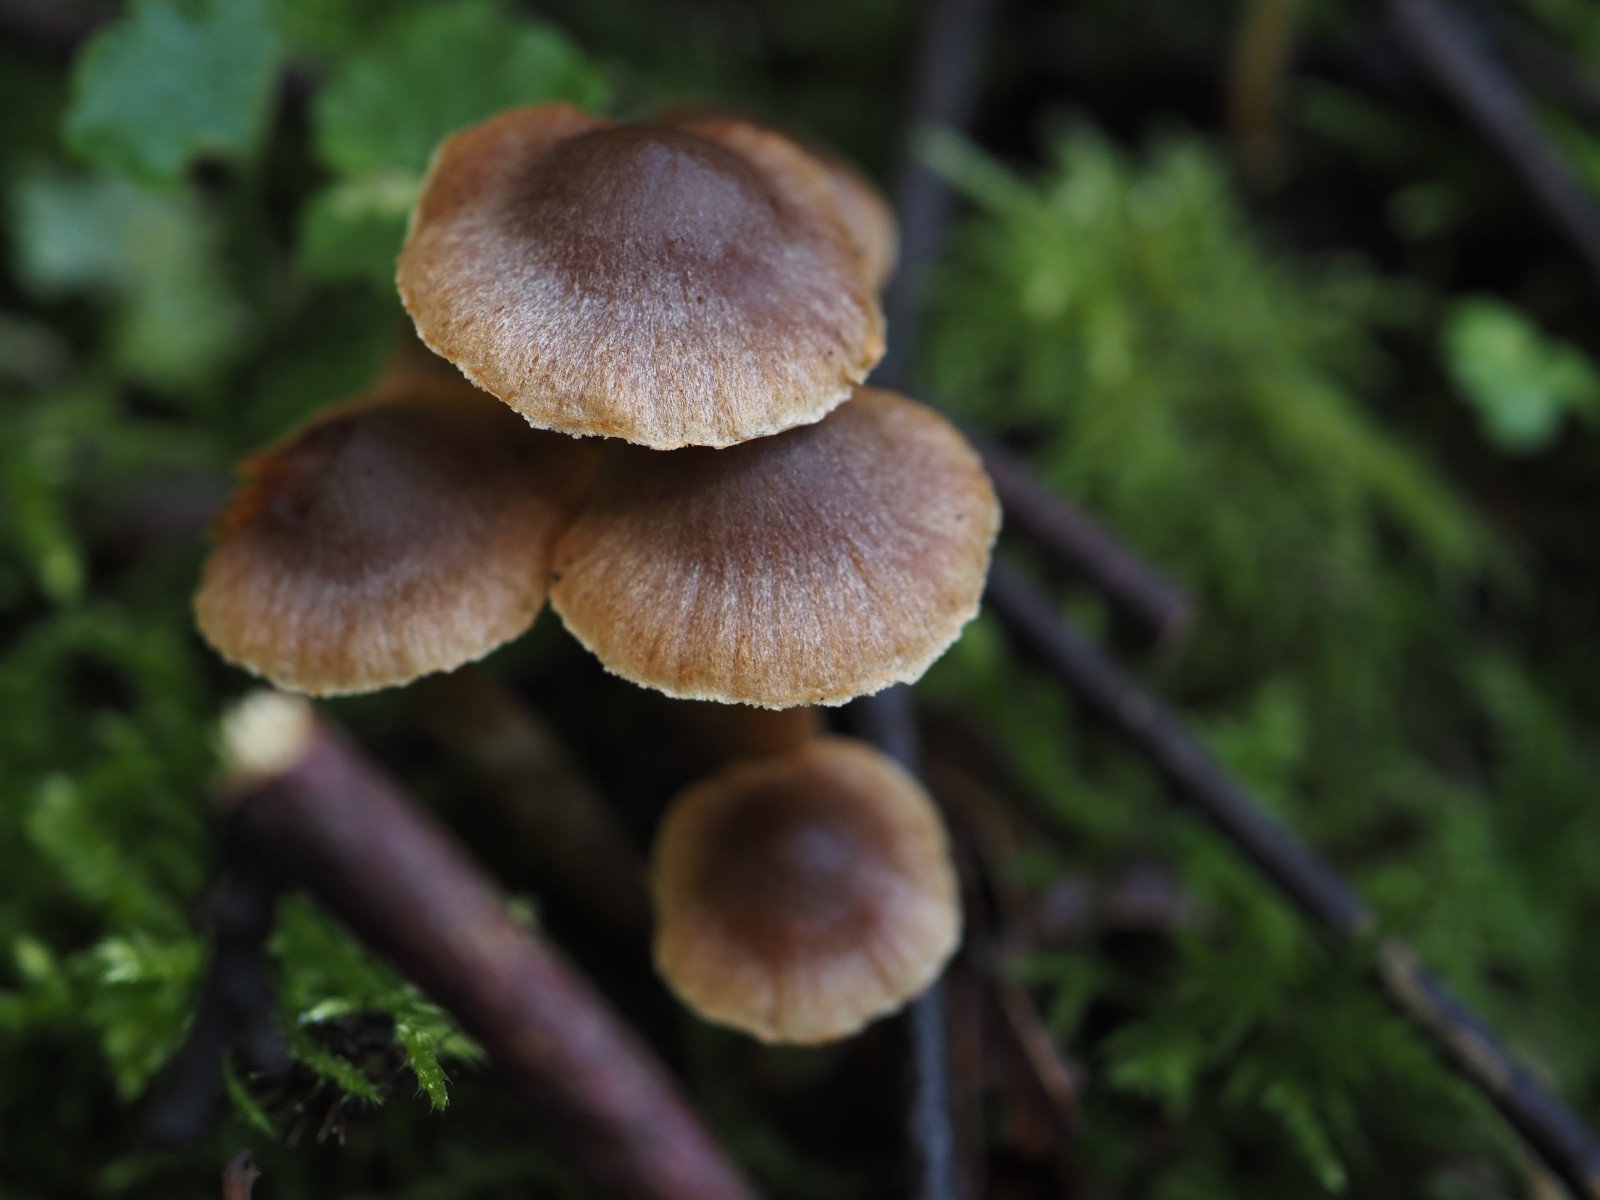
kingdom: Fungi
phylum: Basidiomycota
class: Agaricomycetes
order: Agaricales
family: Cortinariaceae
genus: Cortinarius
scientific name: Cortinarius flexibilifolius
